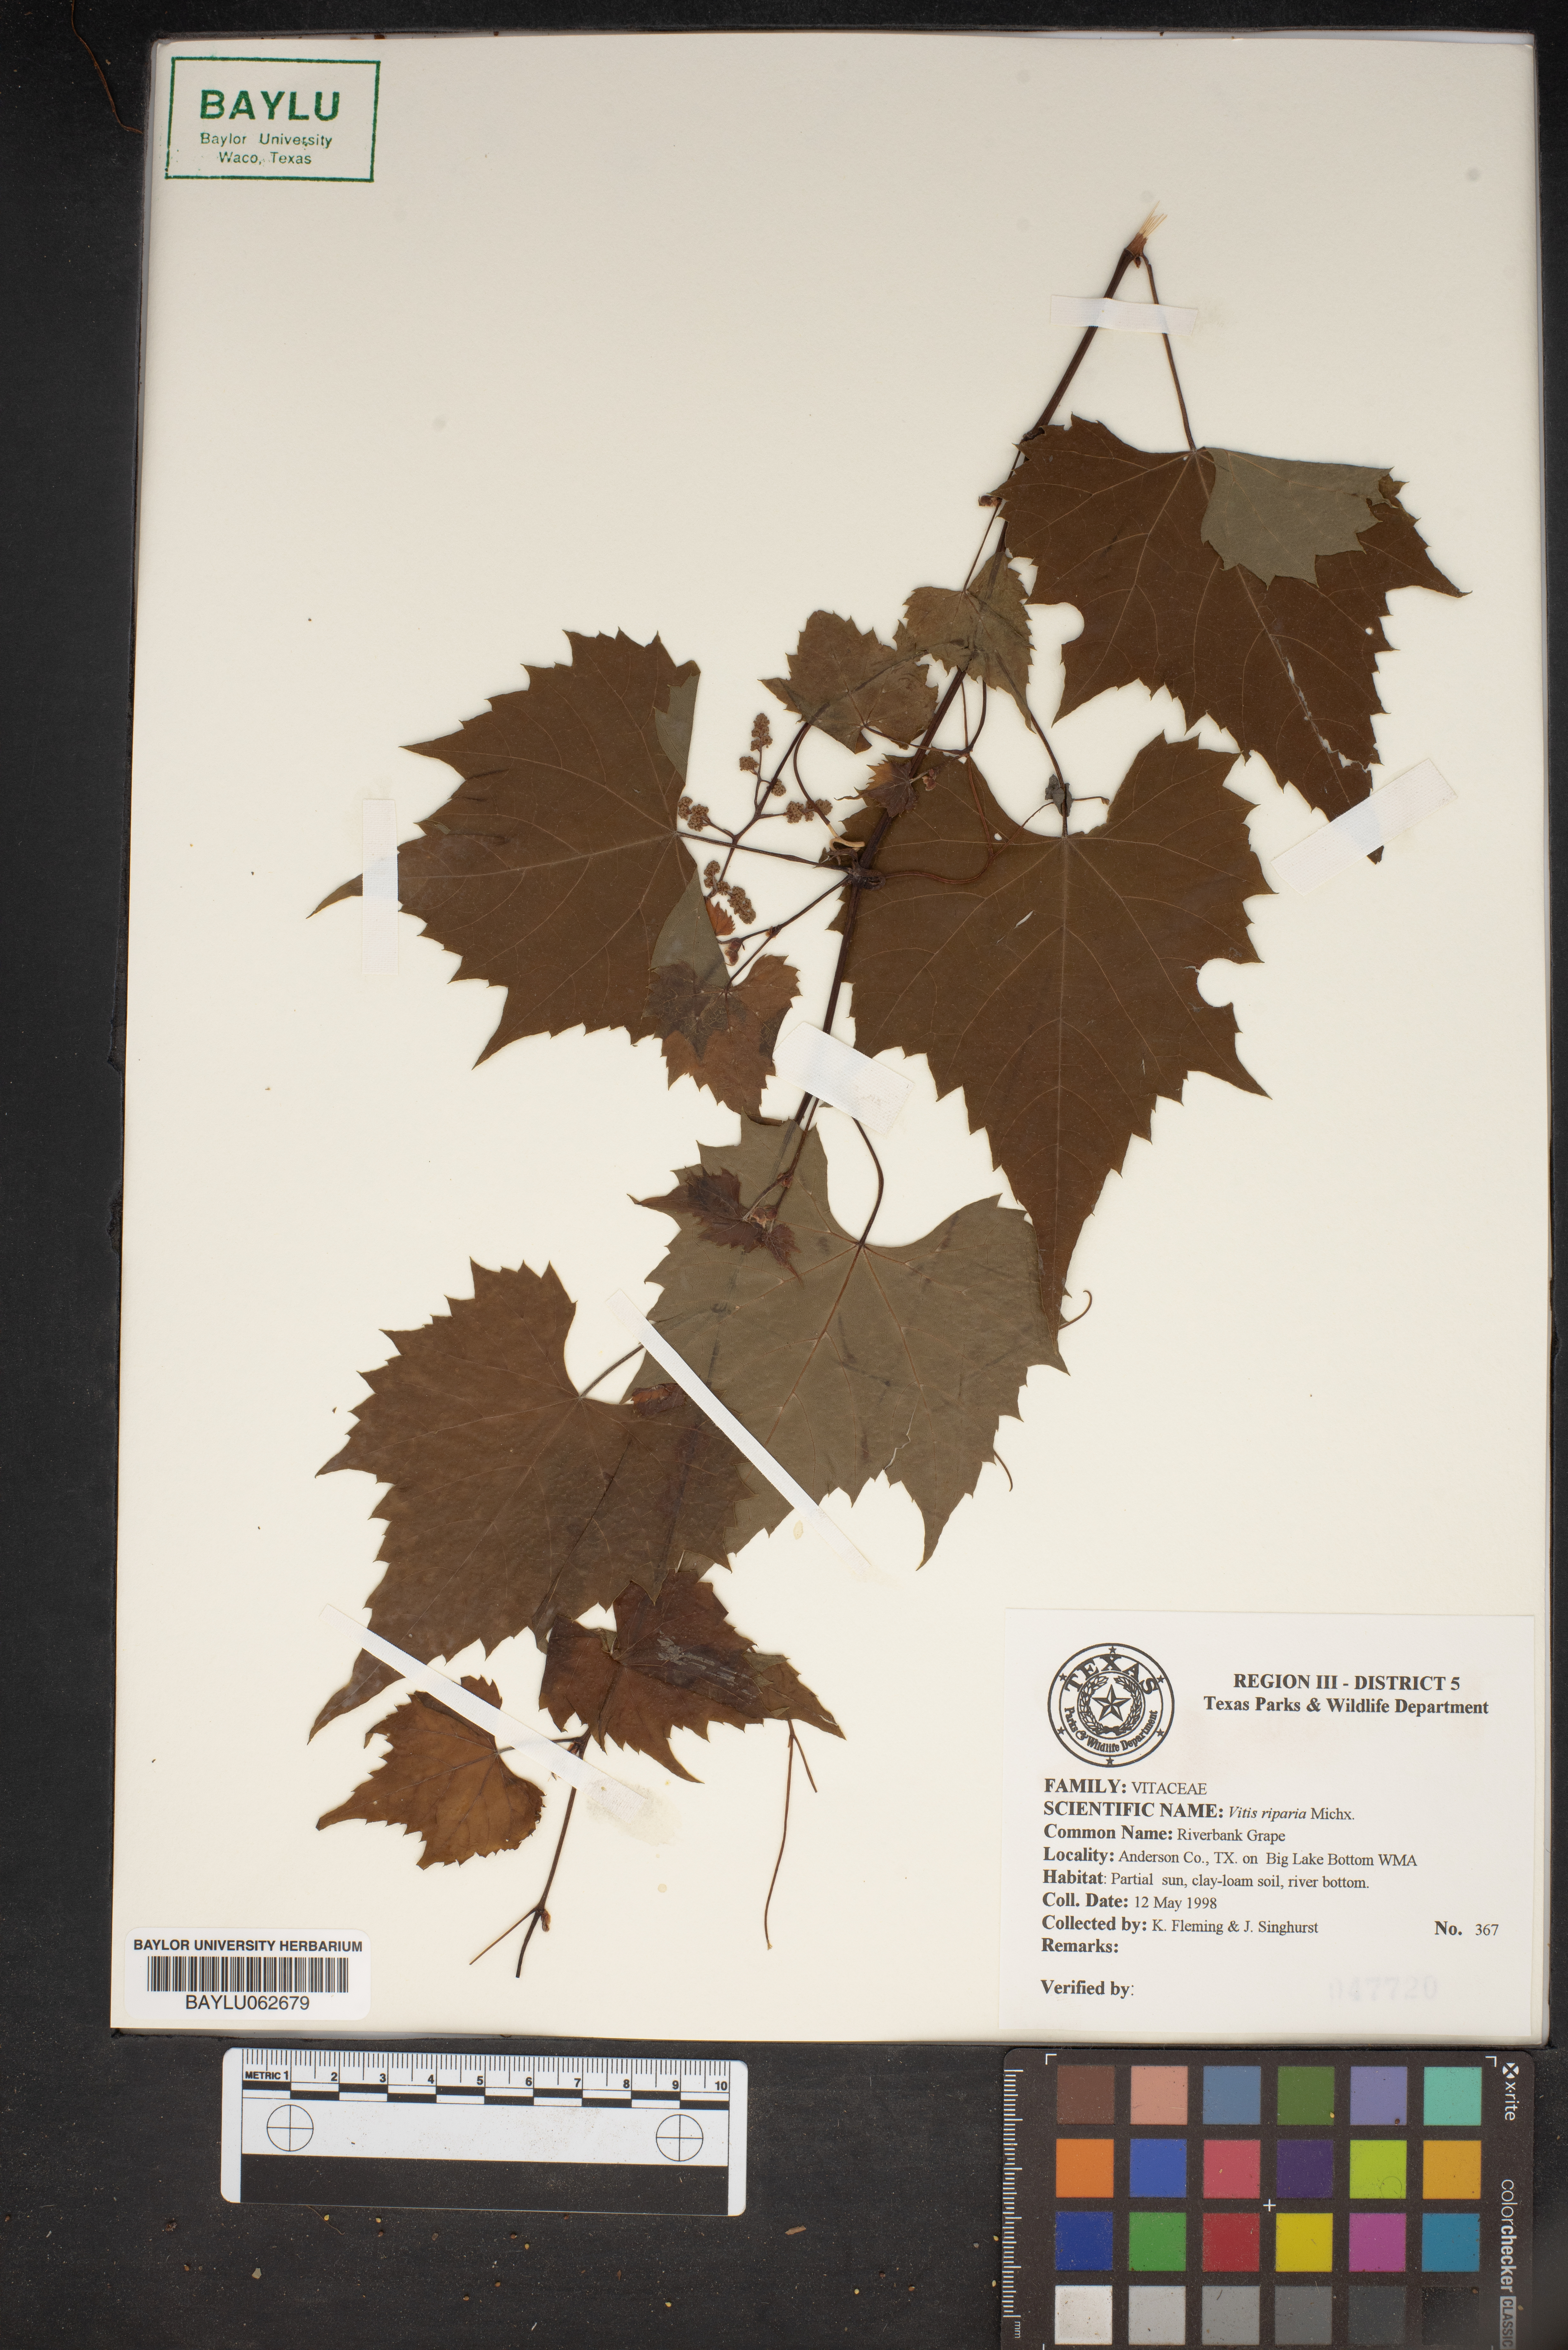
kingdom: Plantae
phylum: Tracheophyta
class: Magnoliopsida
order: Vitales
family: Vitaceae
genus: Vitis
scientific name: Vitis riparia
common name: Frost grape
